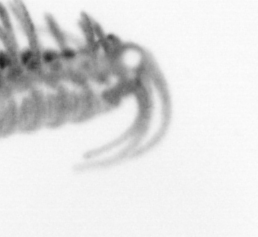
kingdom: Animalia
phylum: Annelida
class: Polychaeta
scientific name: Polychaeta
